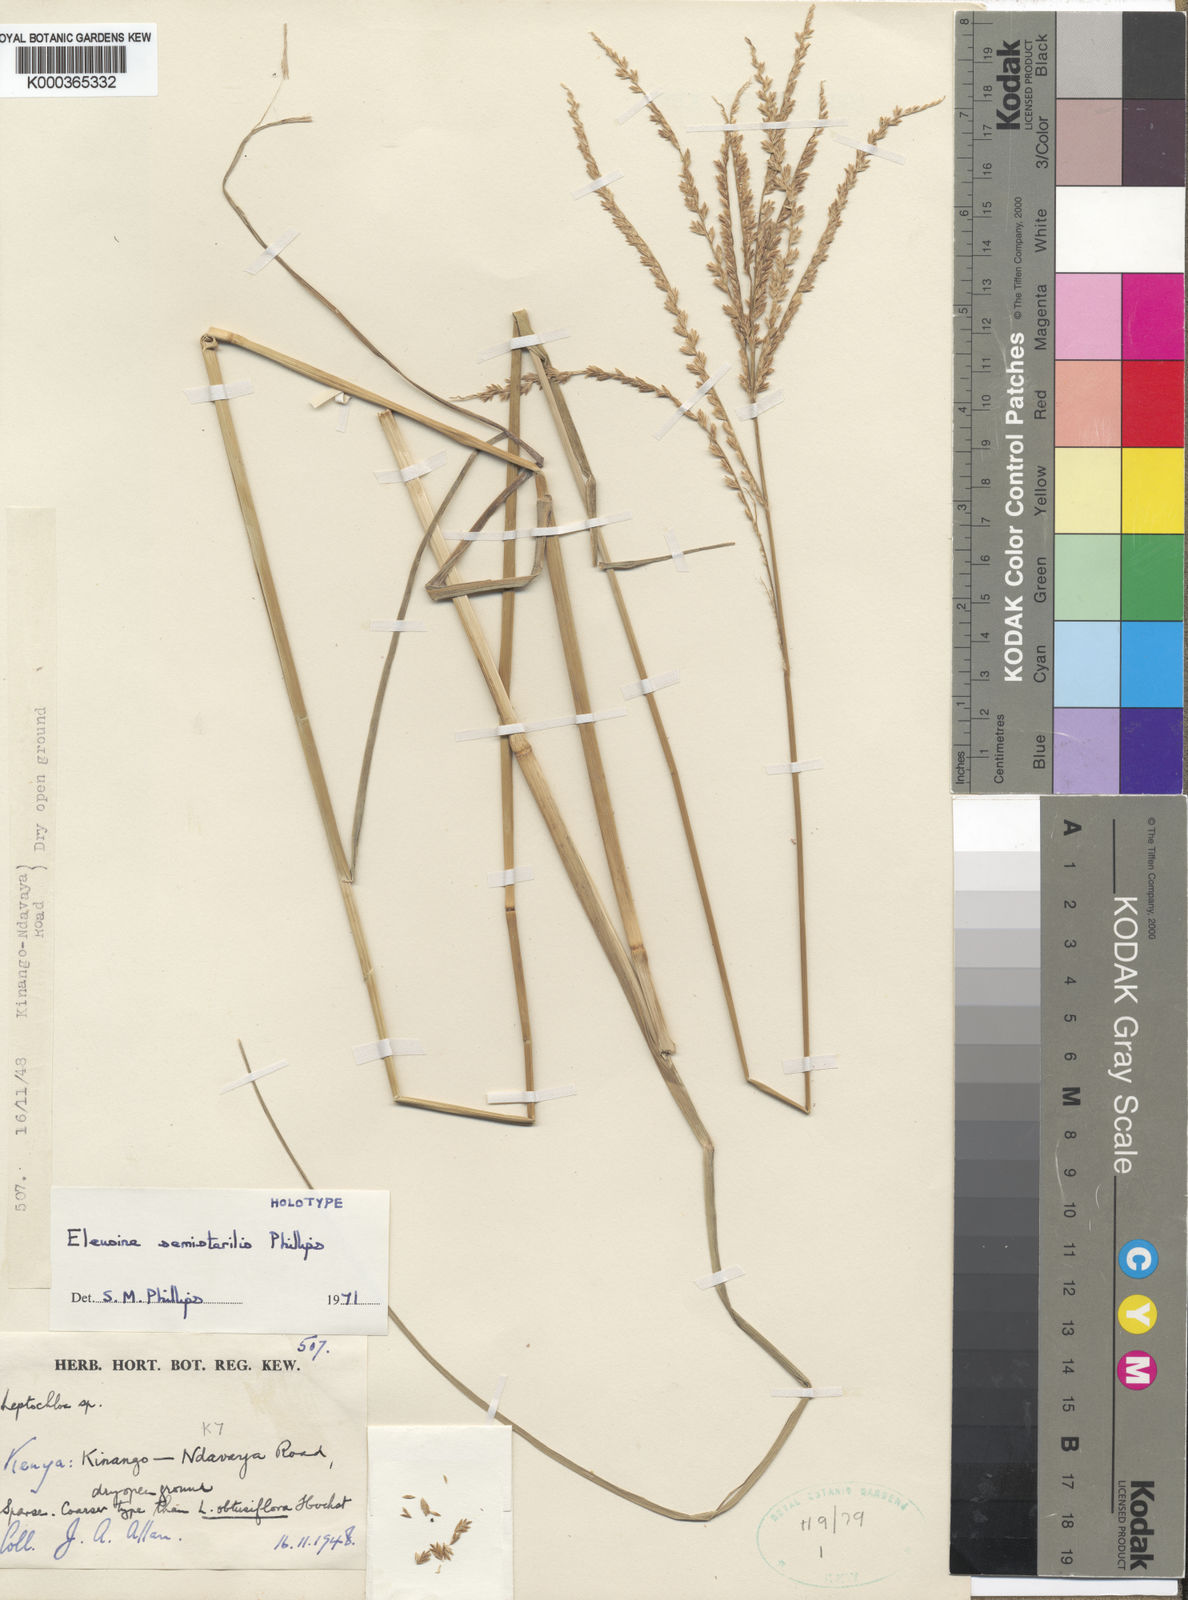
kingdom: Plantae
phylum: Tracheophyta
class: Liliopsida
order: Poales
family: Poaceae
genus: Eleusine
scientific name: Eleusine semisterilis
